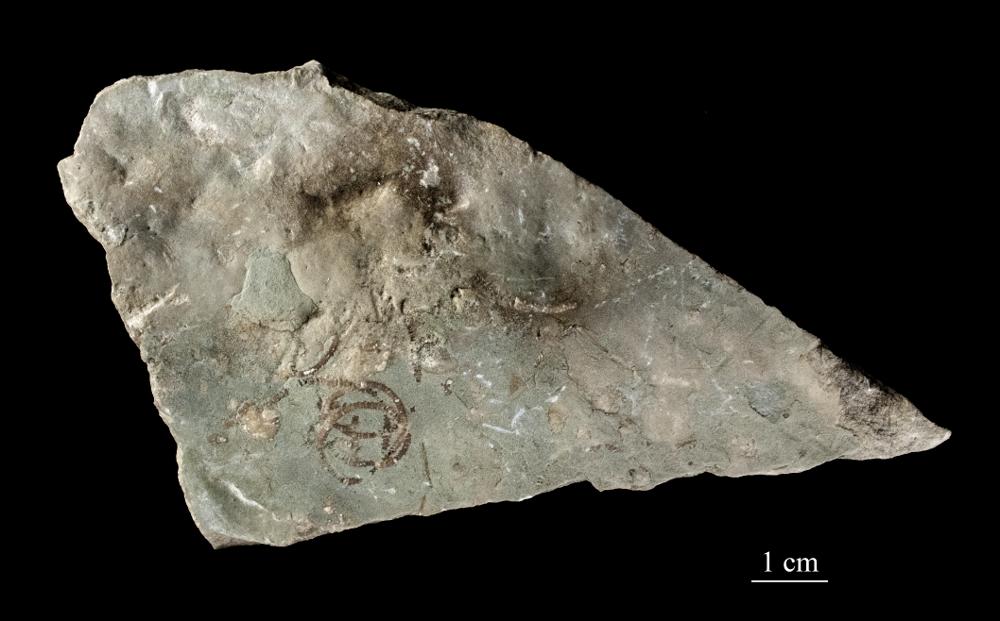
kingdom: Animalia
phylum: Echinodermata
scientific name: Echinodermata
